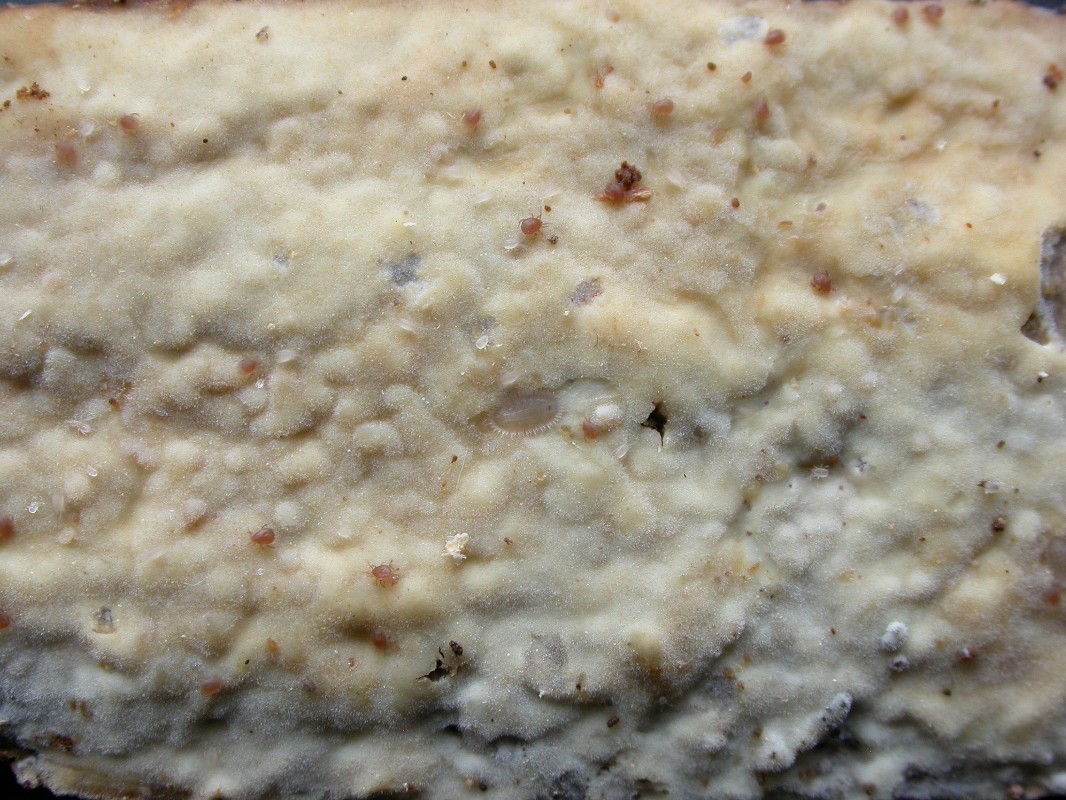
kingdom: Fungi
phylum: Basidiomycota
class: Agaricomycetes
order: Polyporales
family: Phanerochaetaceae
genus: Phanerochaete
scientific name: Phanerochaete sordida
